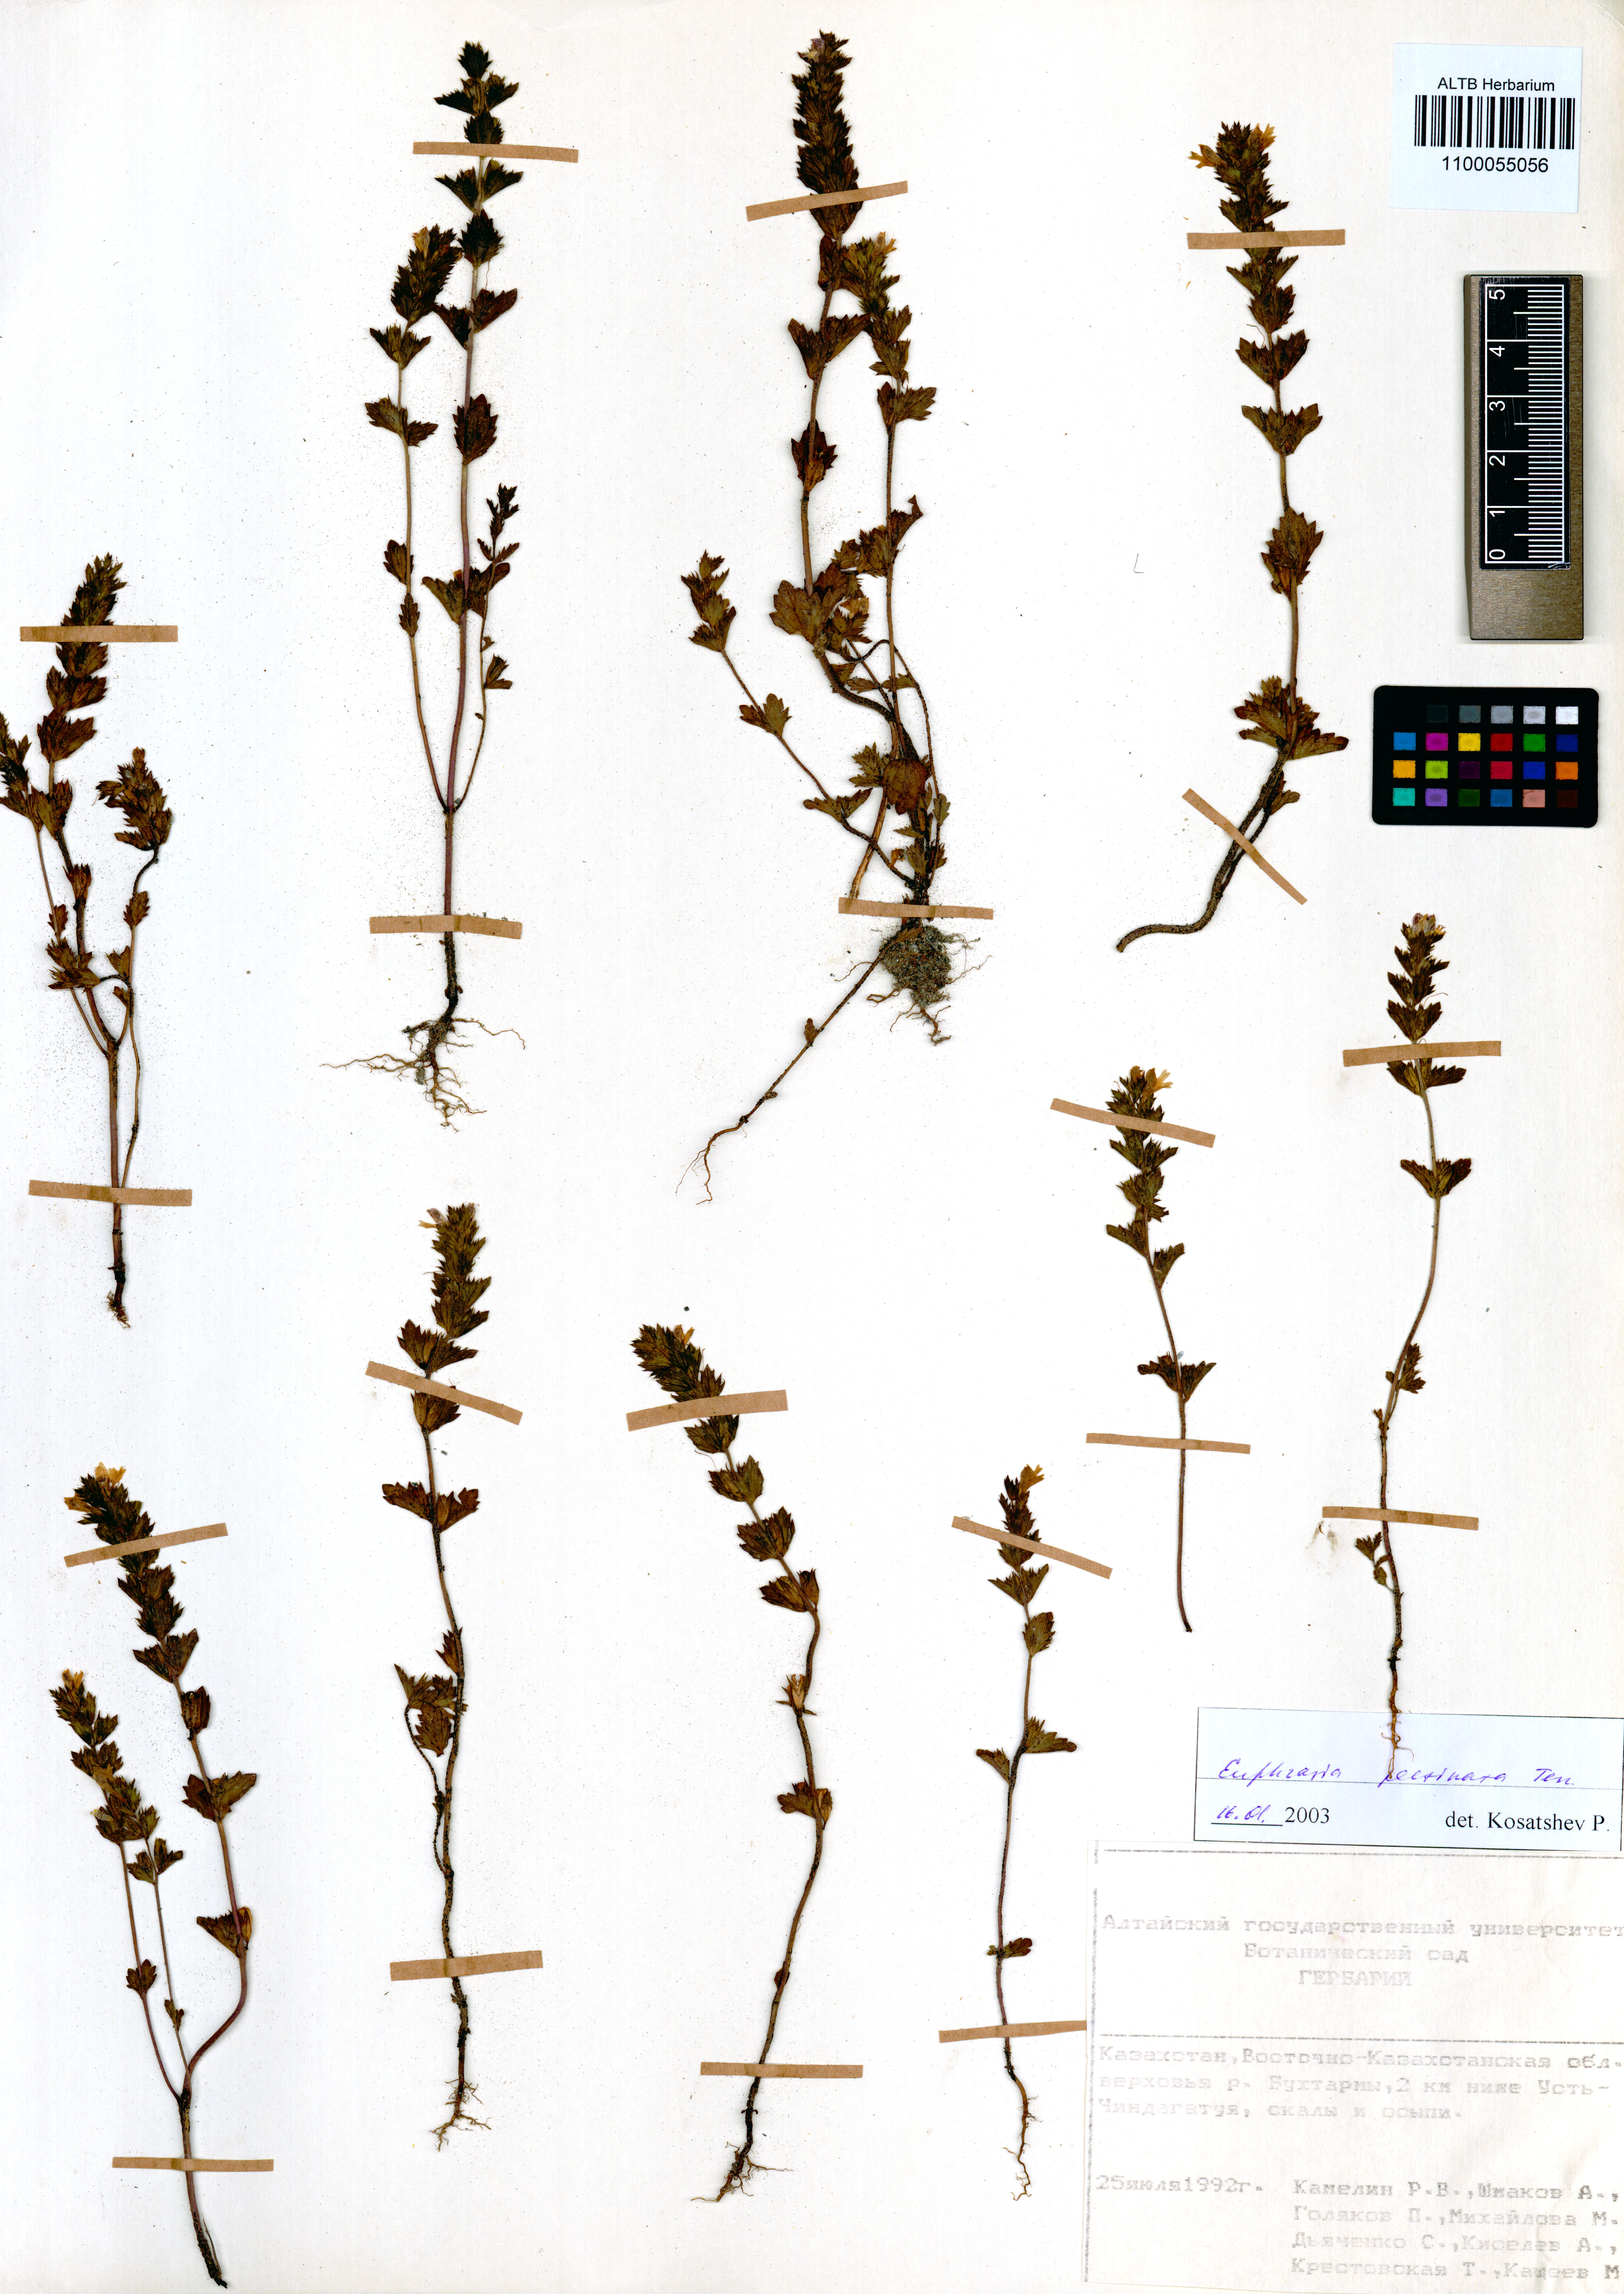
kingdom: Plantae
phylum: Tracheophyta
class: Magnoliopsida
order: Lamiales
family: Orobanchaceae
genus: Euphrasia
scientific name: Euphrasia pectinata
